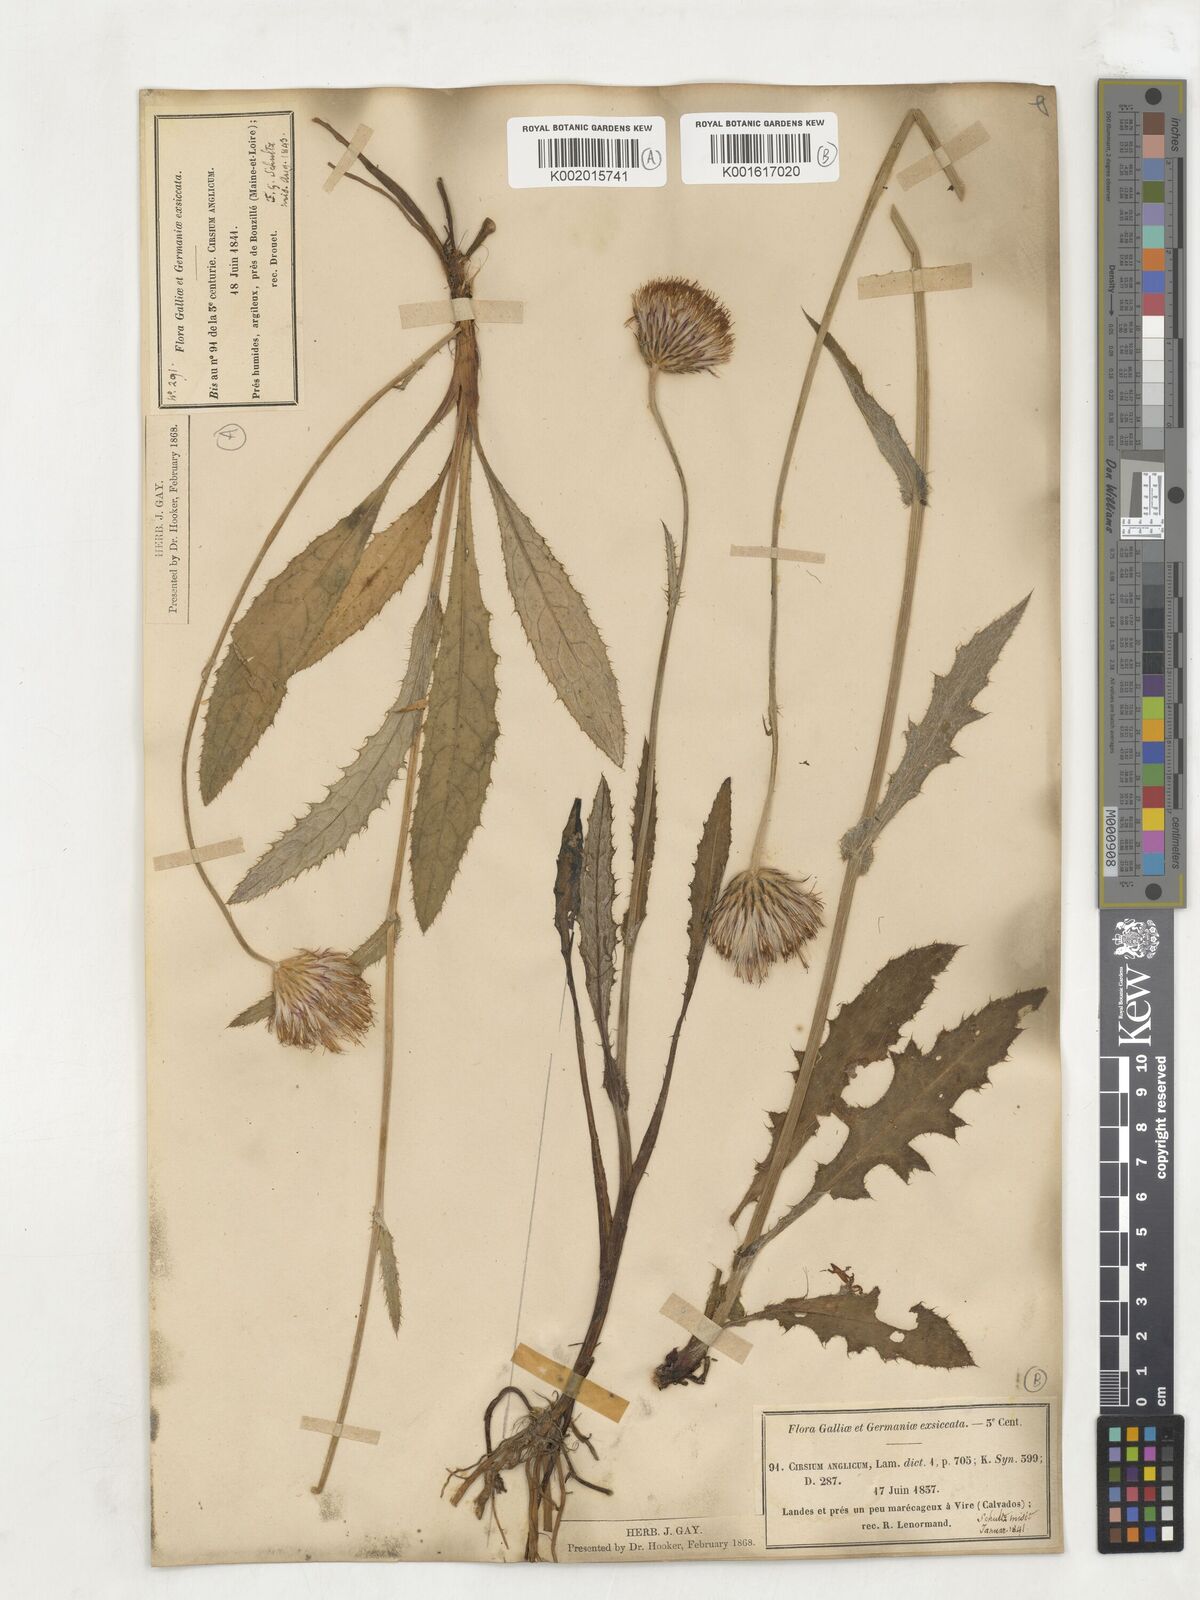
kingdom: Plantae
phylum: Tracheophyta
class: Magnoliopsida
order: Asterales
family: Asteraceae
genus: Cirsium
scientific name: Cirsium
